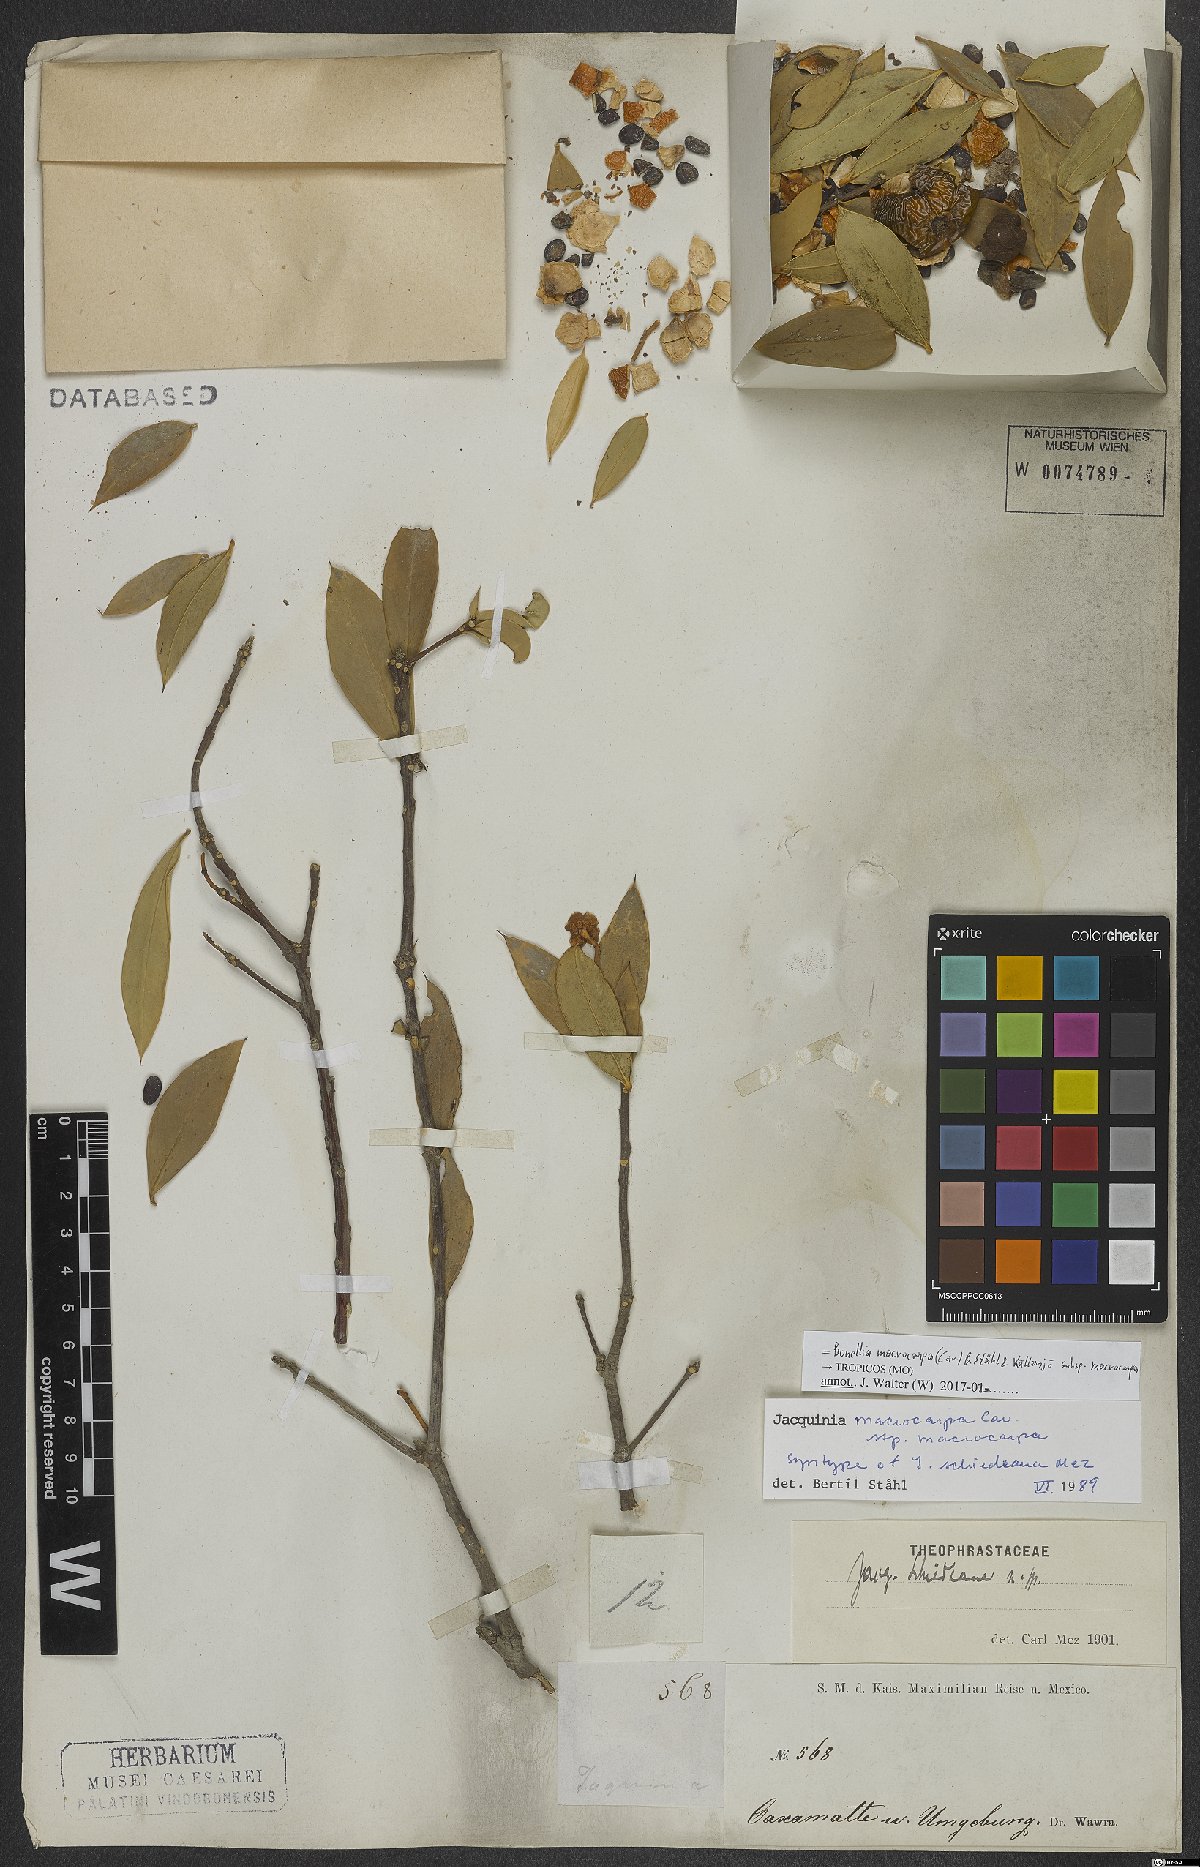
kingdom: Plantae
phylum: Tracheophyta
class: Magnoliopsida
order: Ericales
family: Primulaceae
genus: Bonellia
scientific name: Bonellia macrocarpa
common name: Primrose
